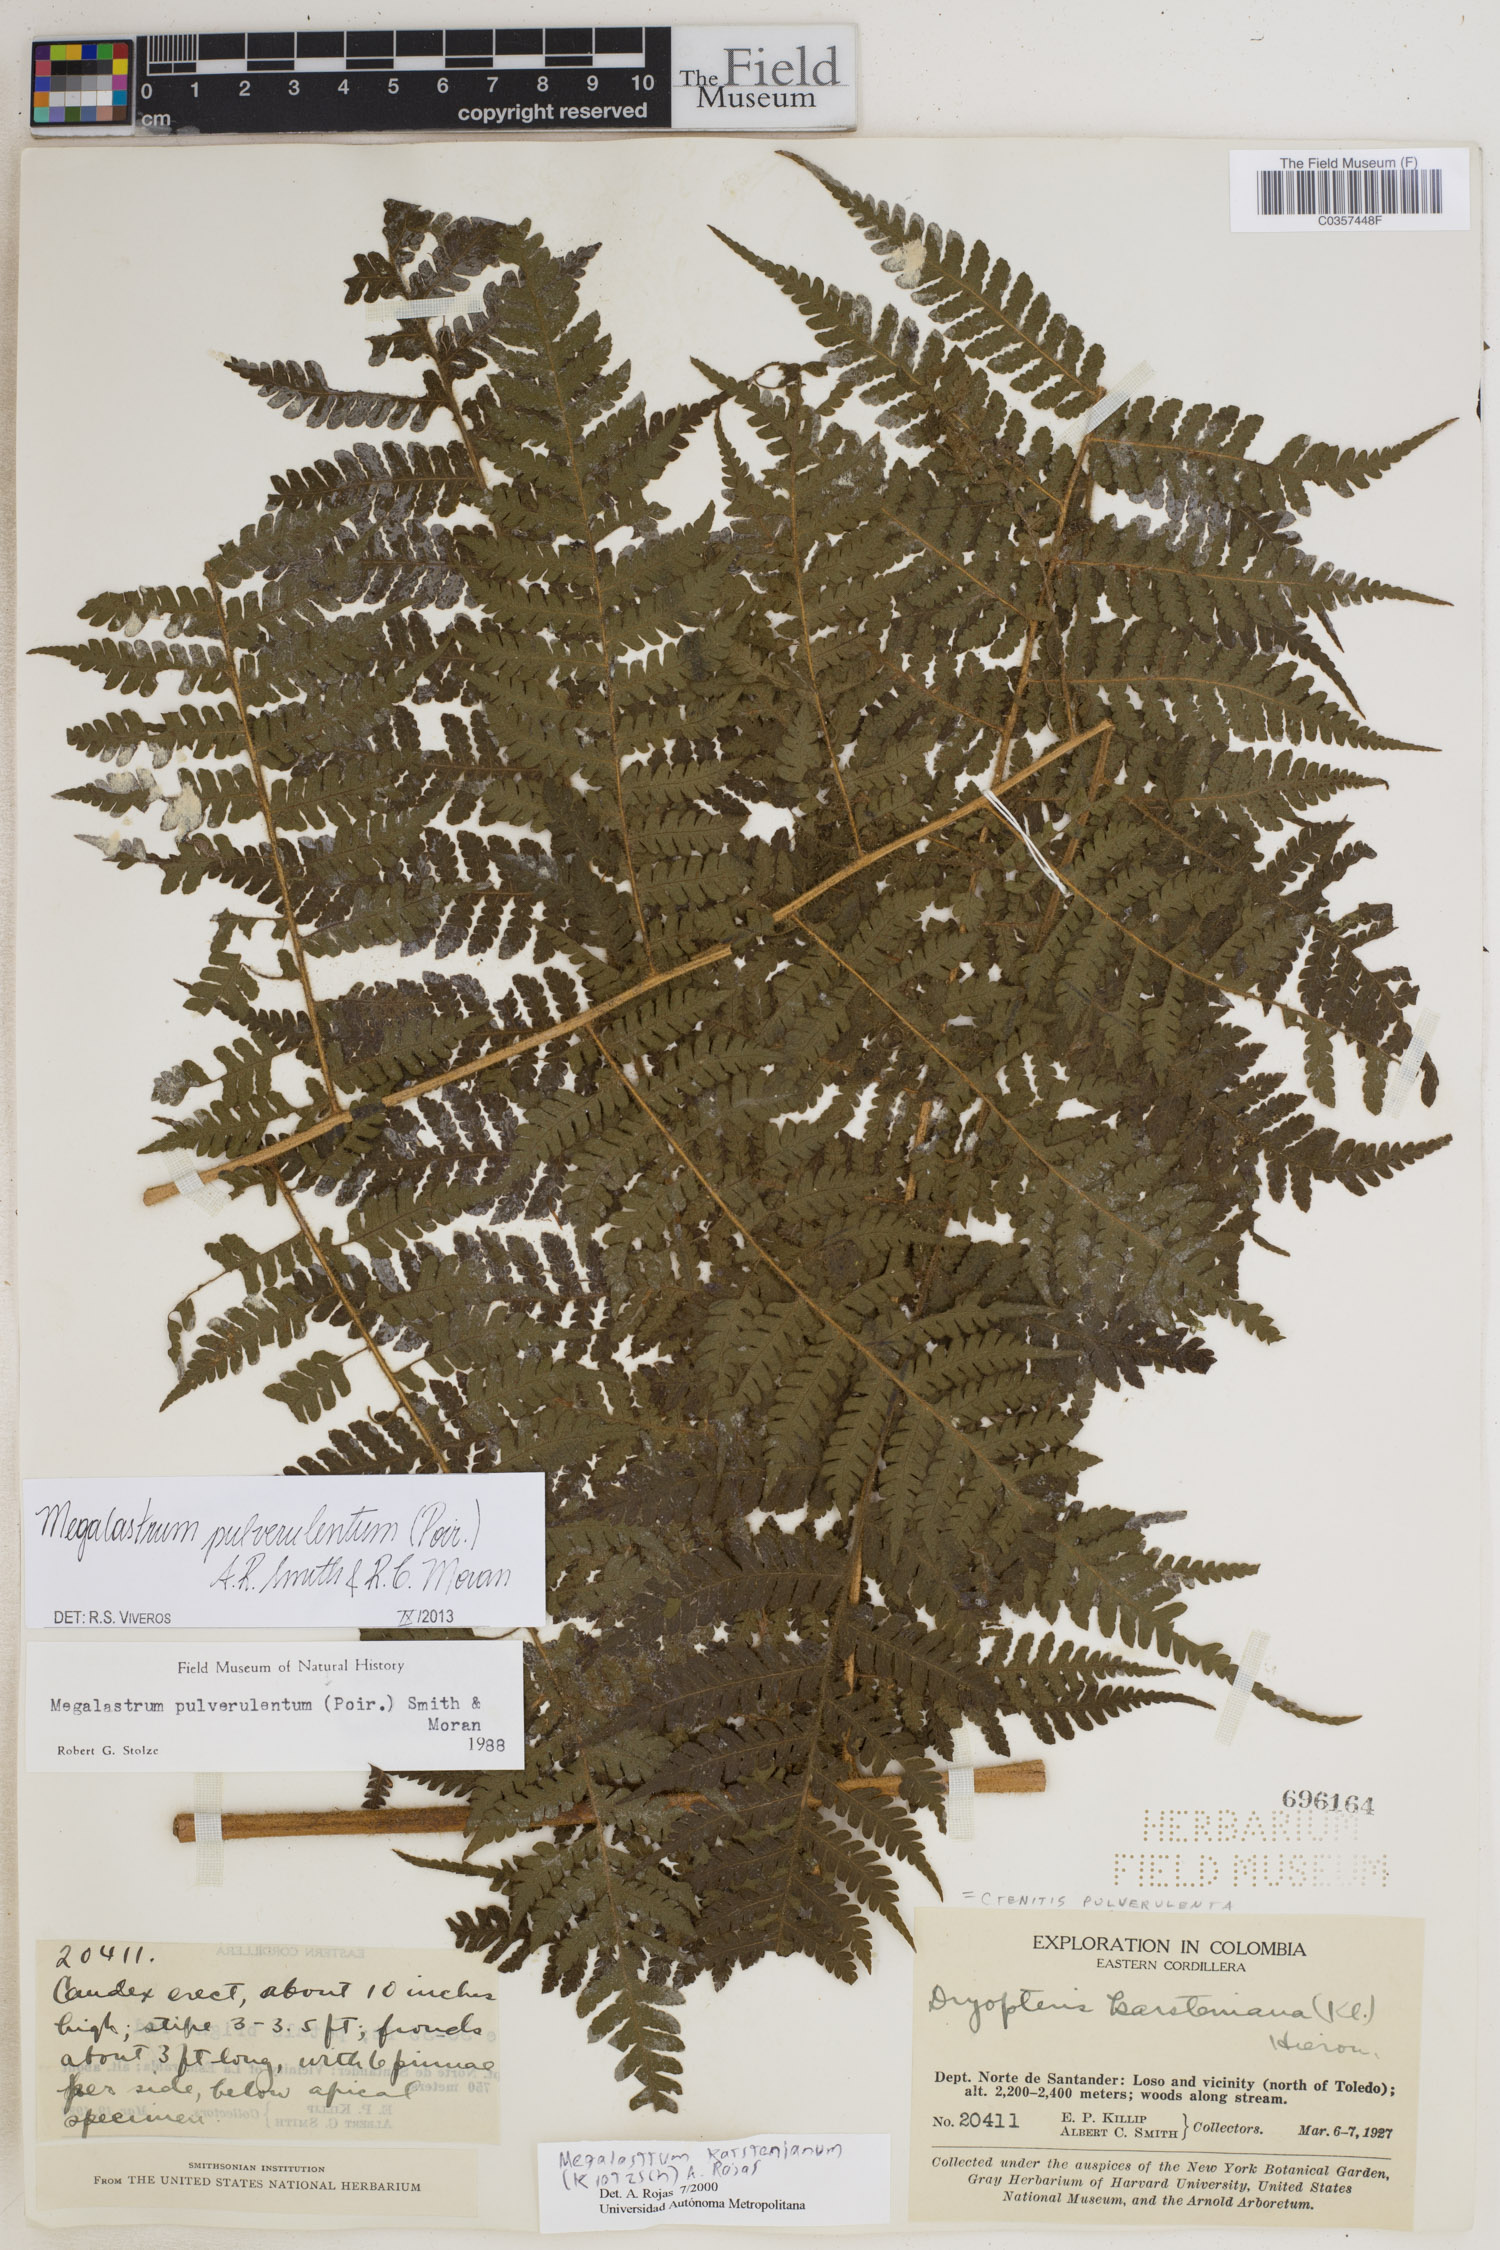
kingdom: Plantae
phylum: Tracheophyta
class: Polypodiopsida
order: Polypodiales
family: Dryopteridaceae
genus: Megalastrum
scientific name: Megalastrum pulverulentum
